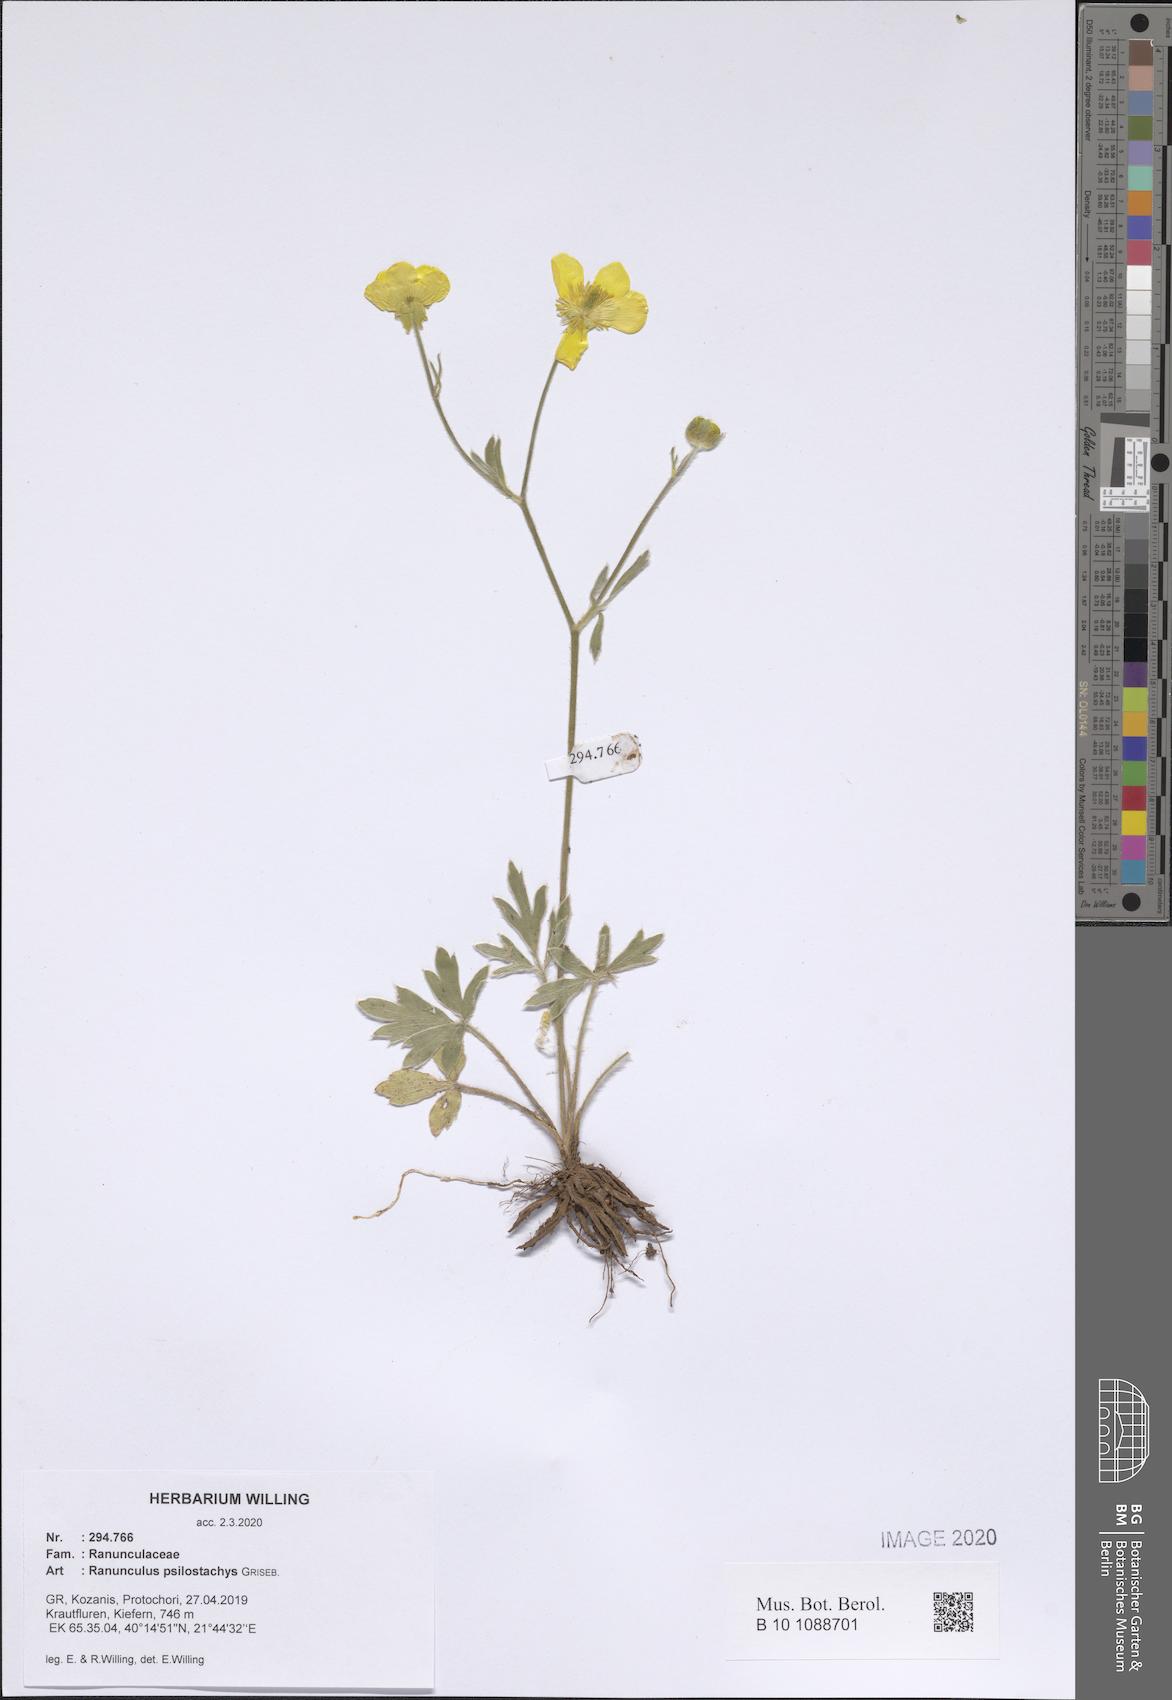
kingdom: Plantae
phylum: Tracheophyta
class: Magnoliopsida
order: Ranunculales
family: Ranunculaceae
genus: Ranunculus
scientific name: Ranunculus psilostachys
